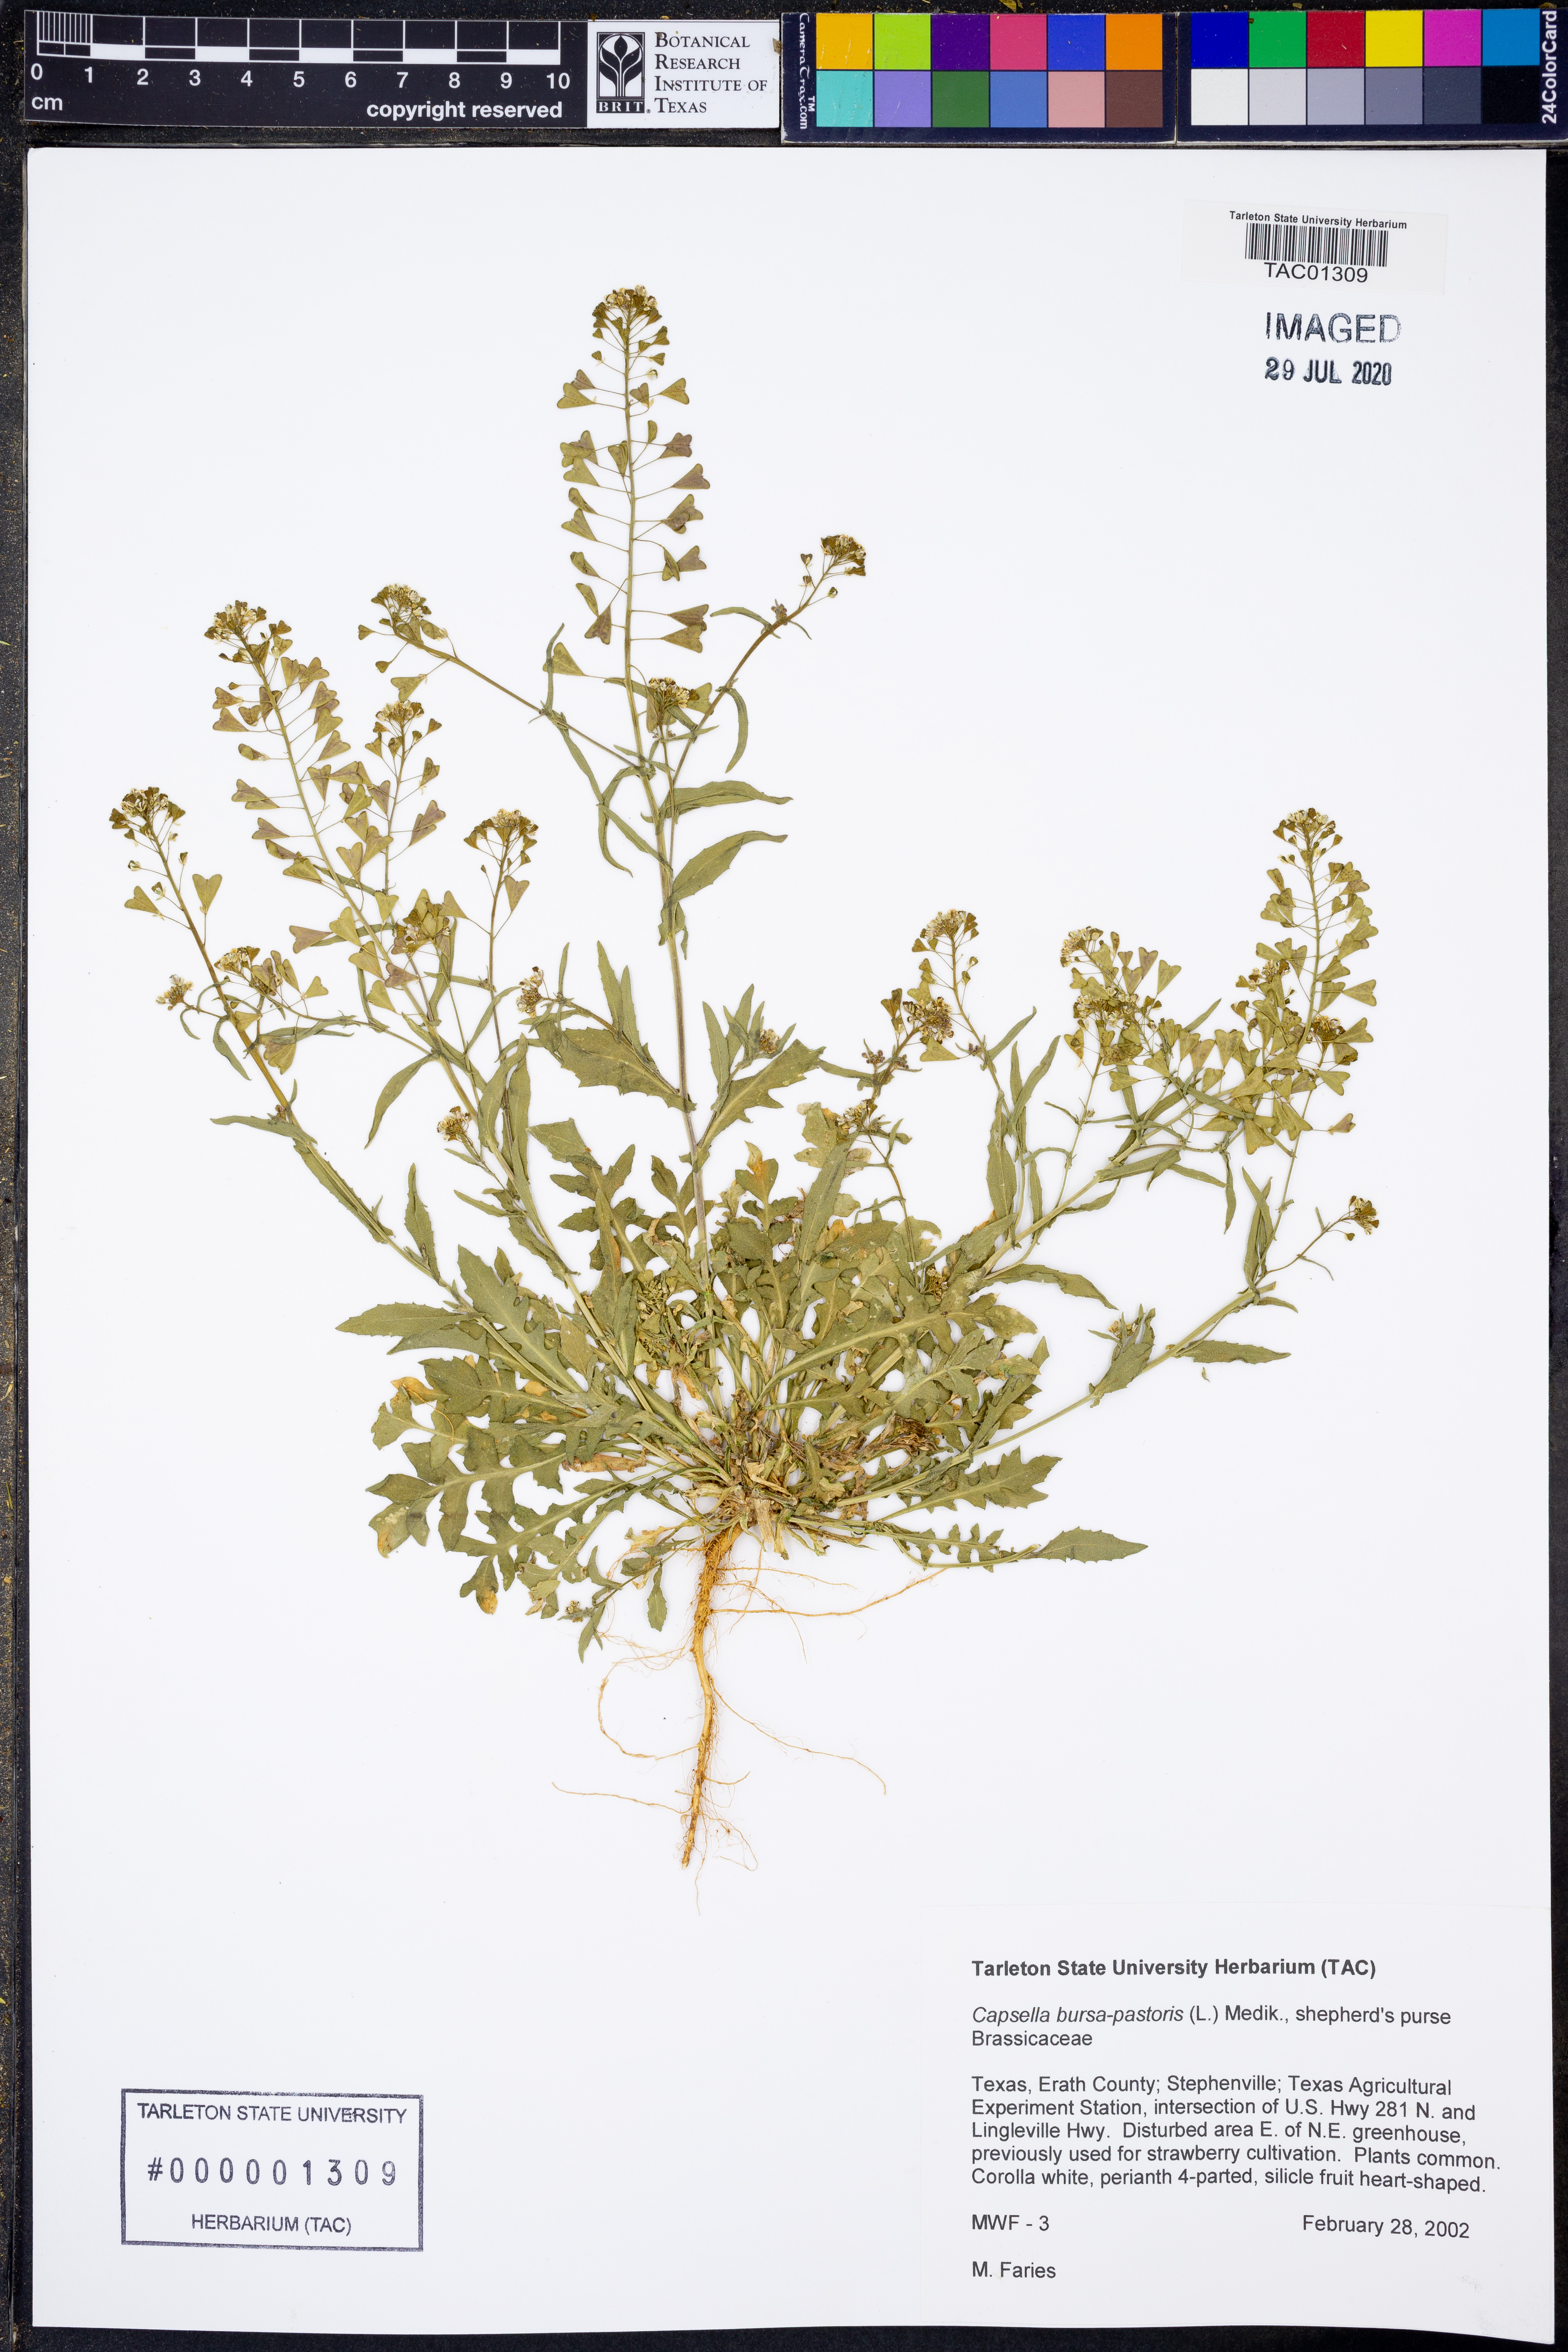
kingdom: Plantae
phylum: Tracheophyta
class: Magnoliopsida
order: Brassicales
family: Brassicaceae
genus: Capsella
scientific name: Capsella bursa-pastoris
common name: Shepherd's purse
